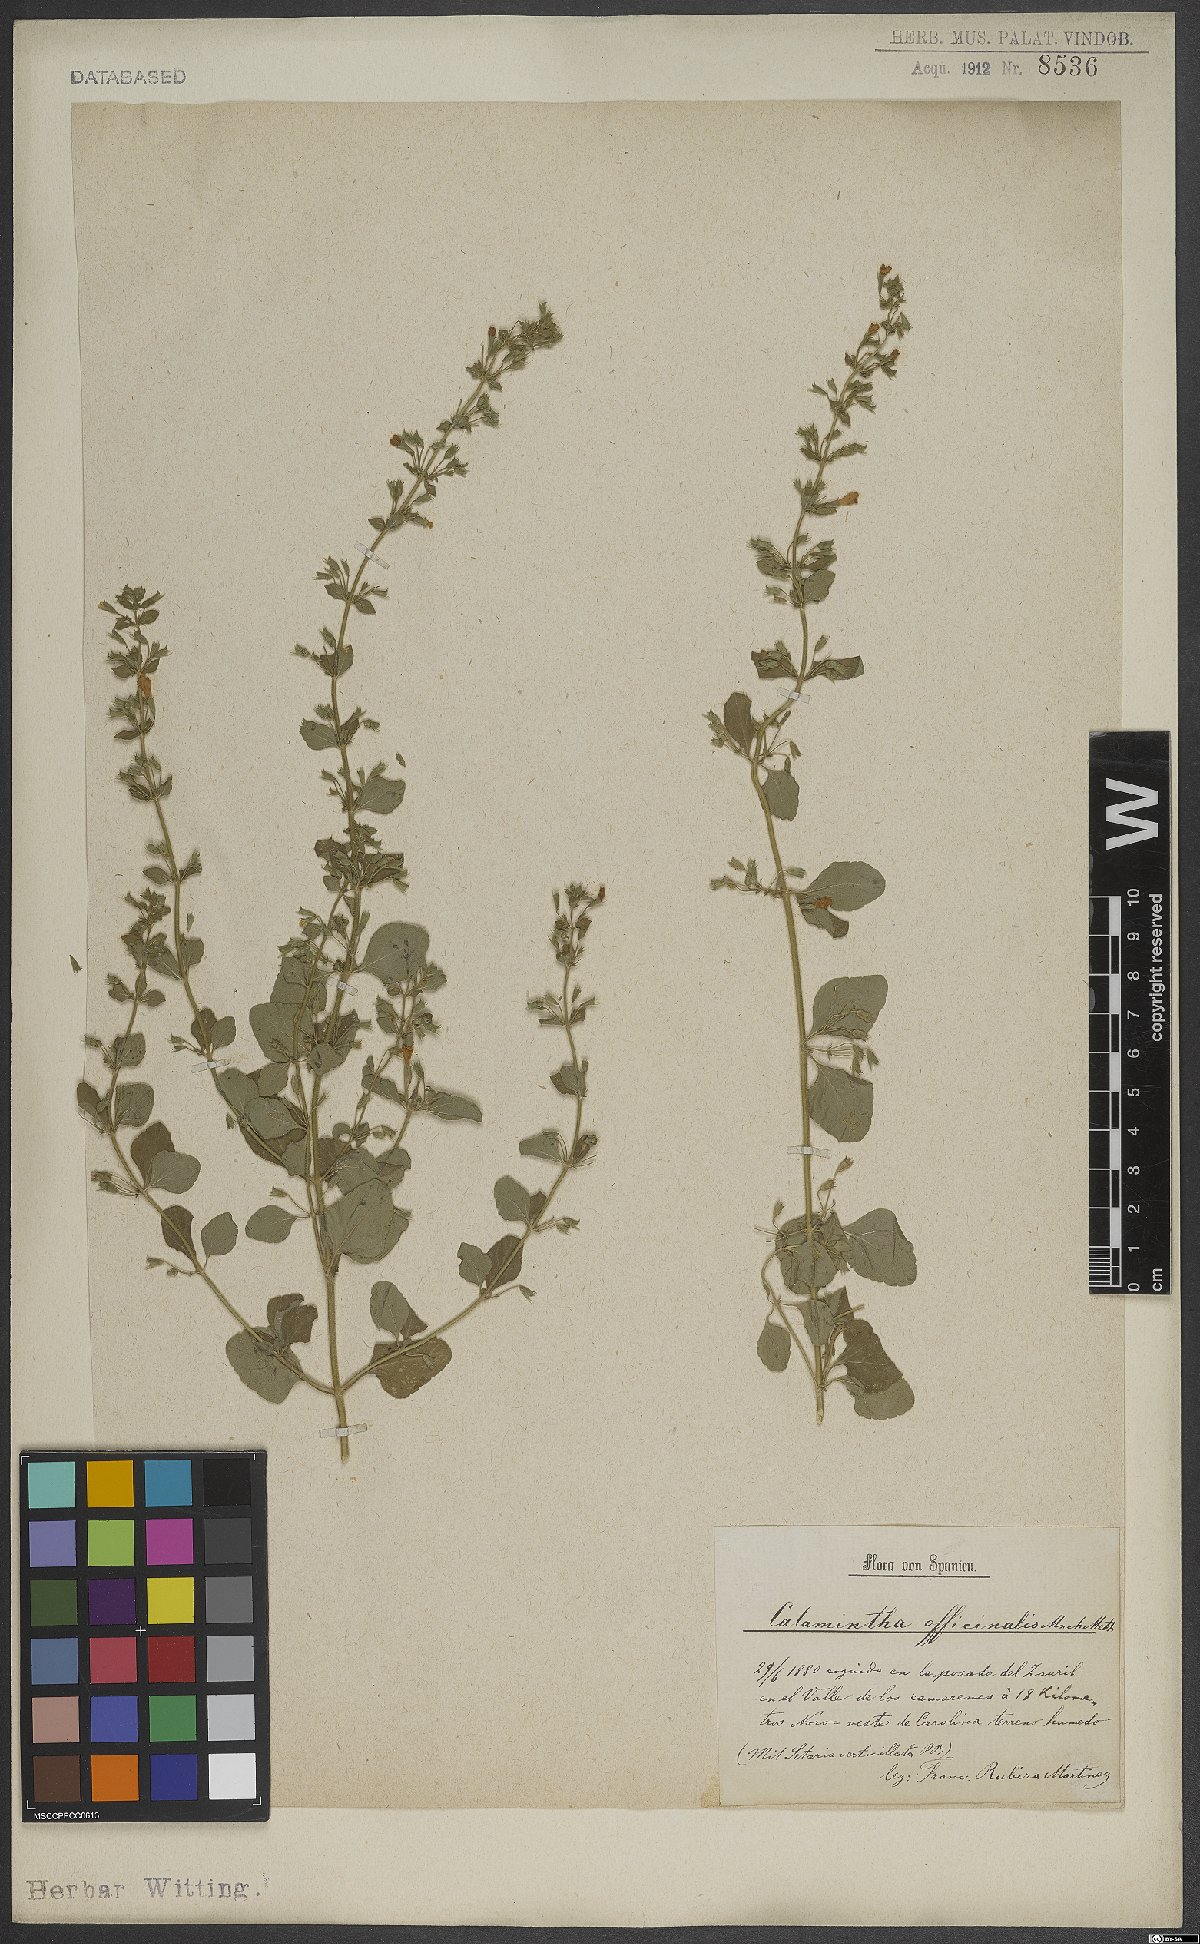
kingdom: Plantae
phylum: Tracheophyta
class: Magnoliopsida
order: Lamiales
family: Lamiaceae
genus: Clinopodium
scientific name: Clinopodium nepeta
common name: Lesser calamint
